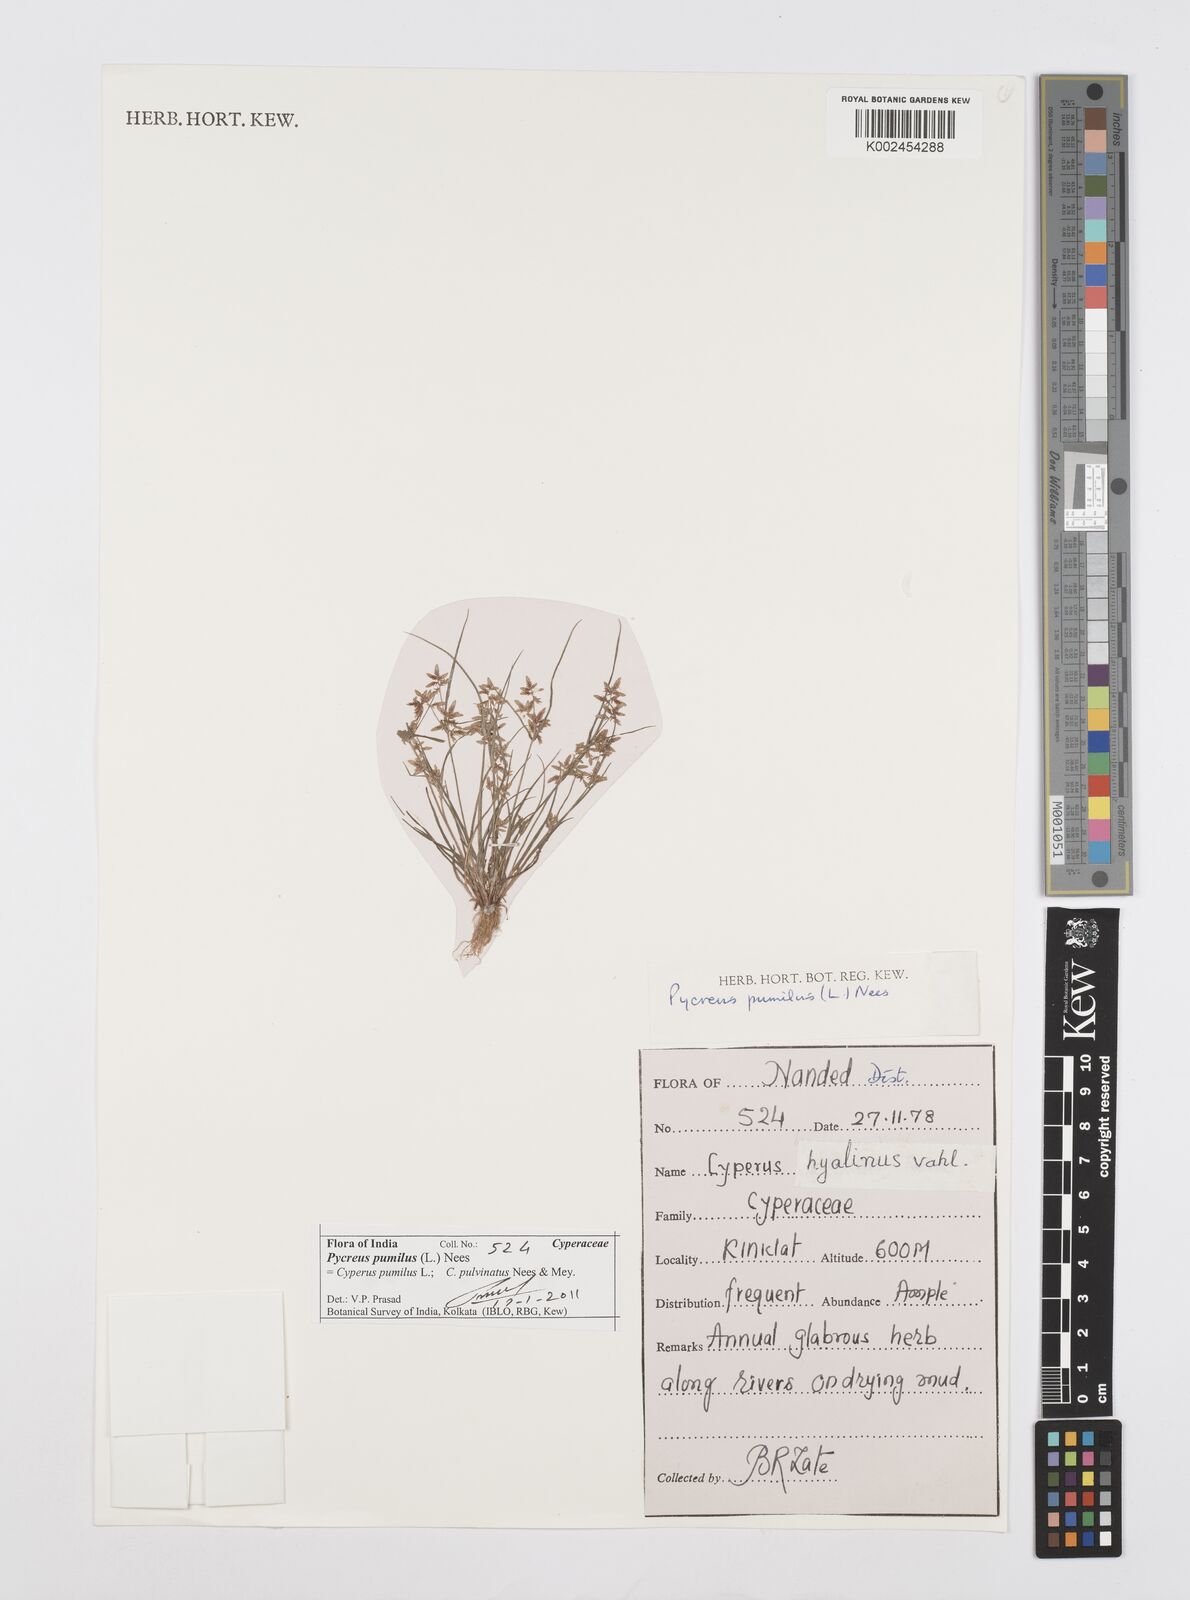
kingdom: Plantae
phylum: Tracheophyta
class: Liliopsida
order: Poales
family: Cyperaceae
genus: Cyperus
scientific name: Cyperus pumilus
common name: Low flatsedge
